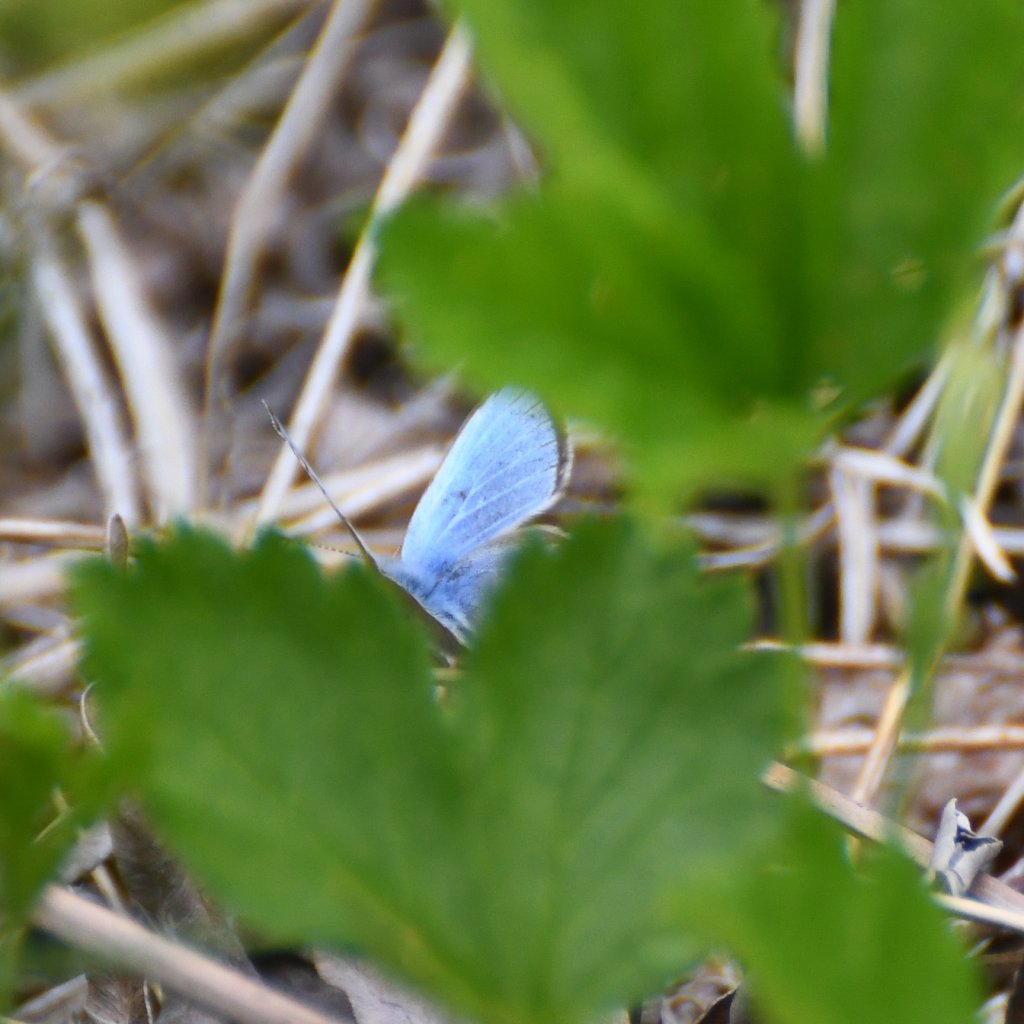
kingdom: Animalia
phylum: Arthropoda
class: Insecta
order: Lepidoptera
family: Lycaenidae
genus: Glaucopsyche
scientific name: Glaucopsyche lygdamus
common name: Silvery Blue
